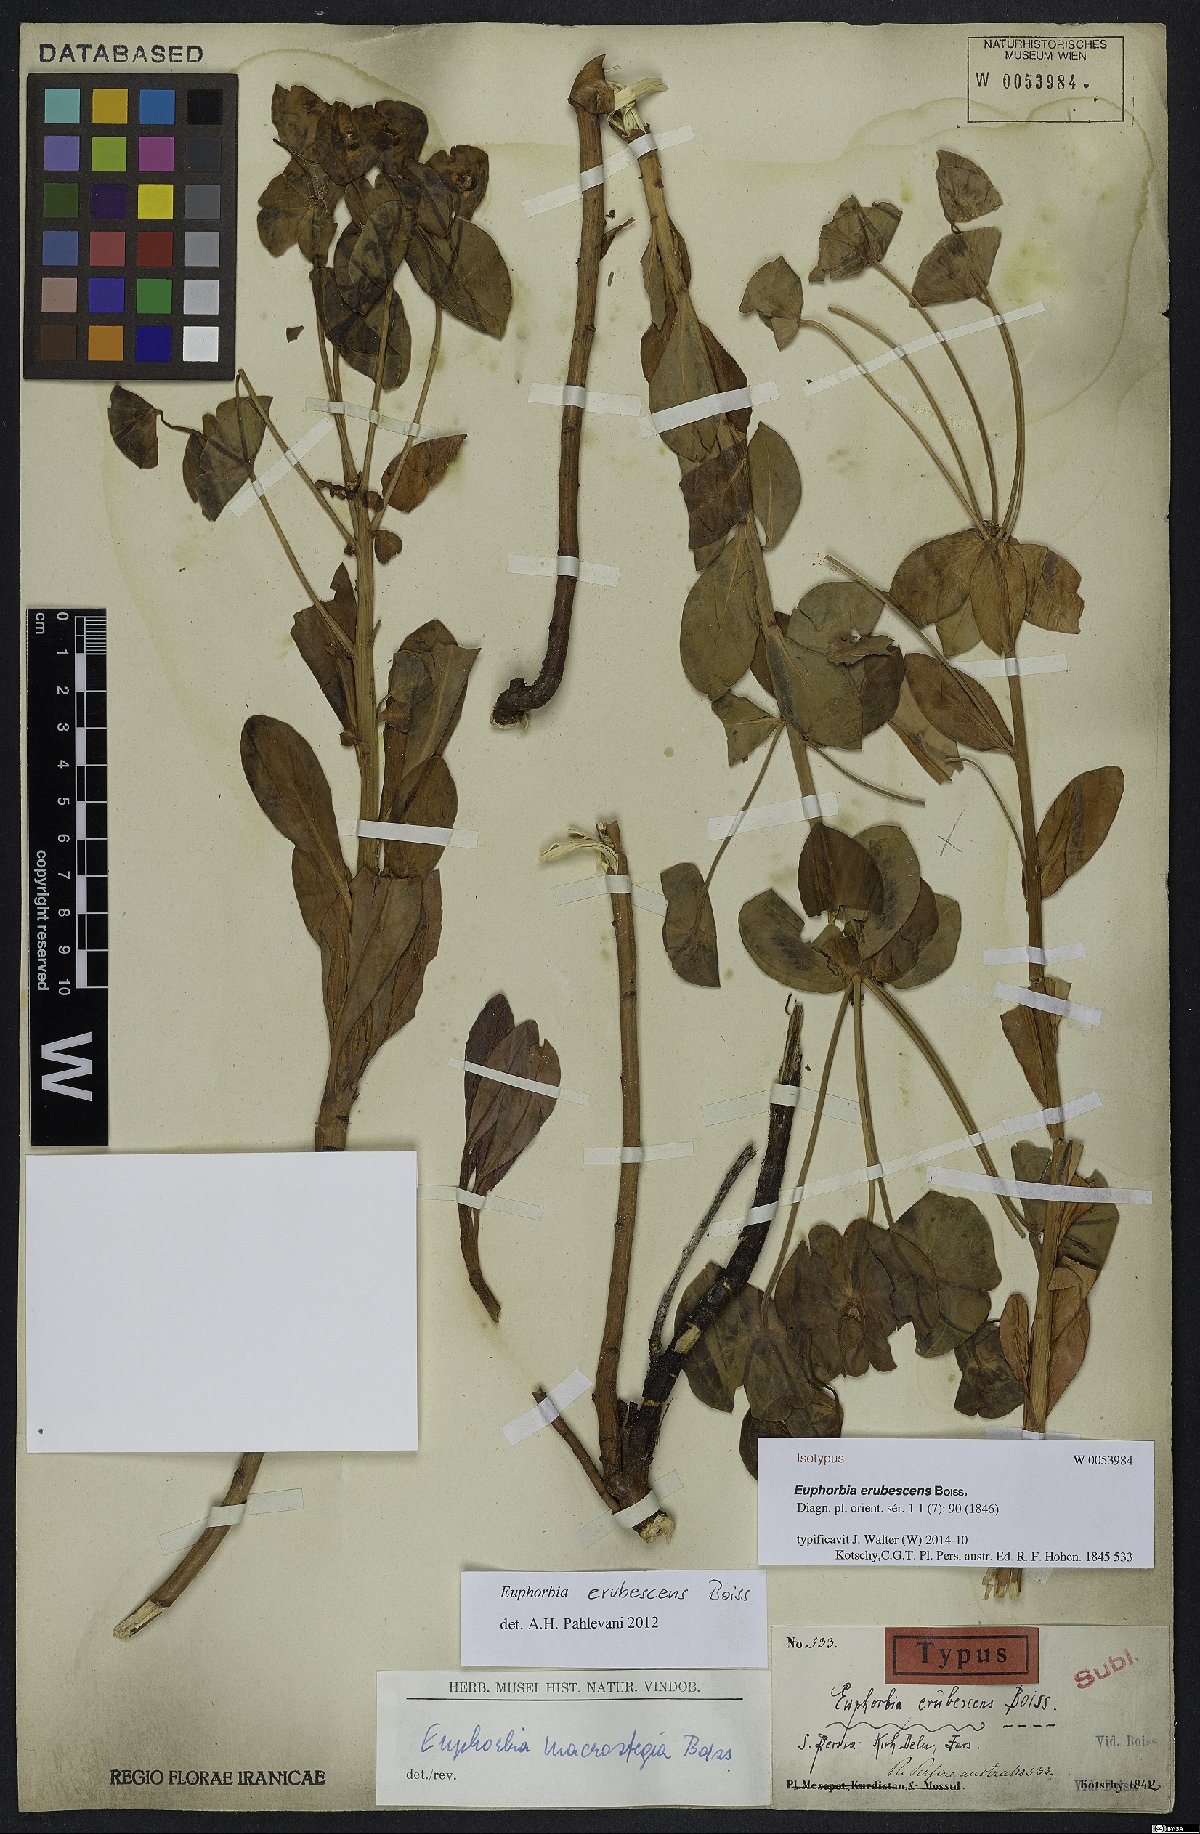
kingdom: Plantae
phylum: Tracheophyta
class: Magnoliopsida
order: Malpighiales
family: Euphorbiaceae
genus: Euphorbia
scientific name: Euphorbia erubescens
